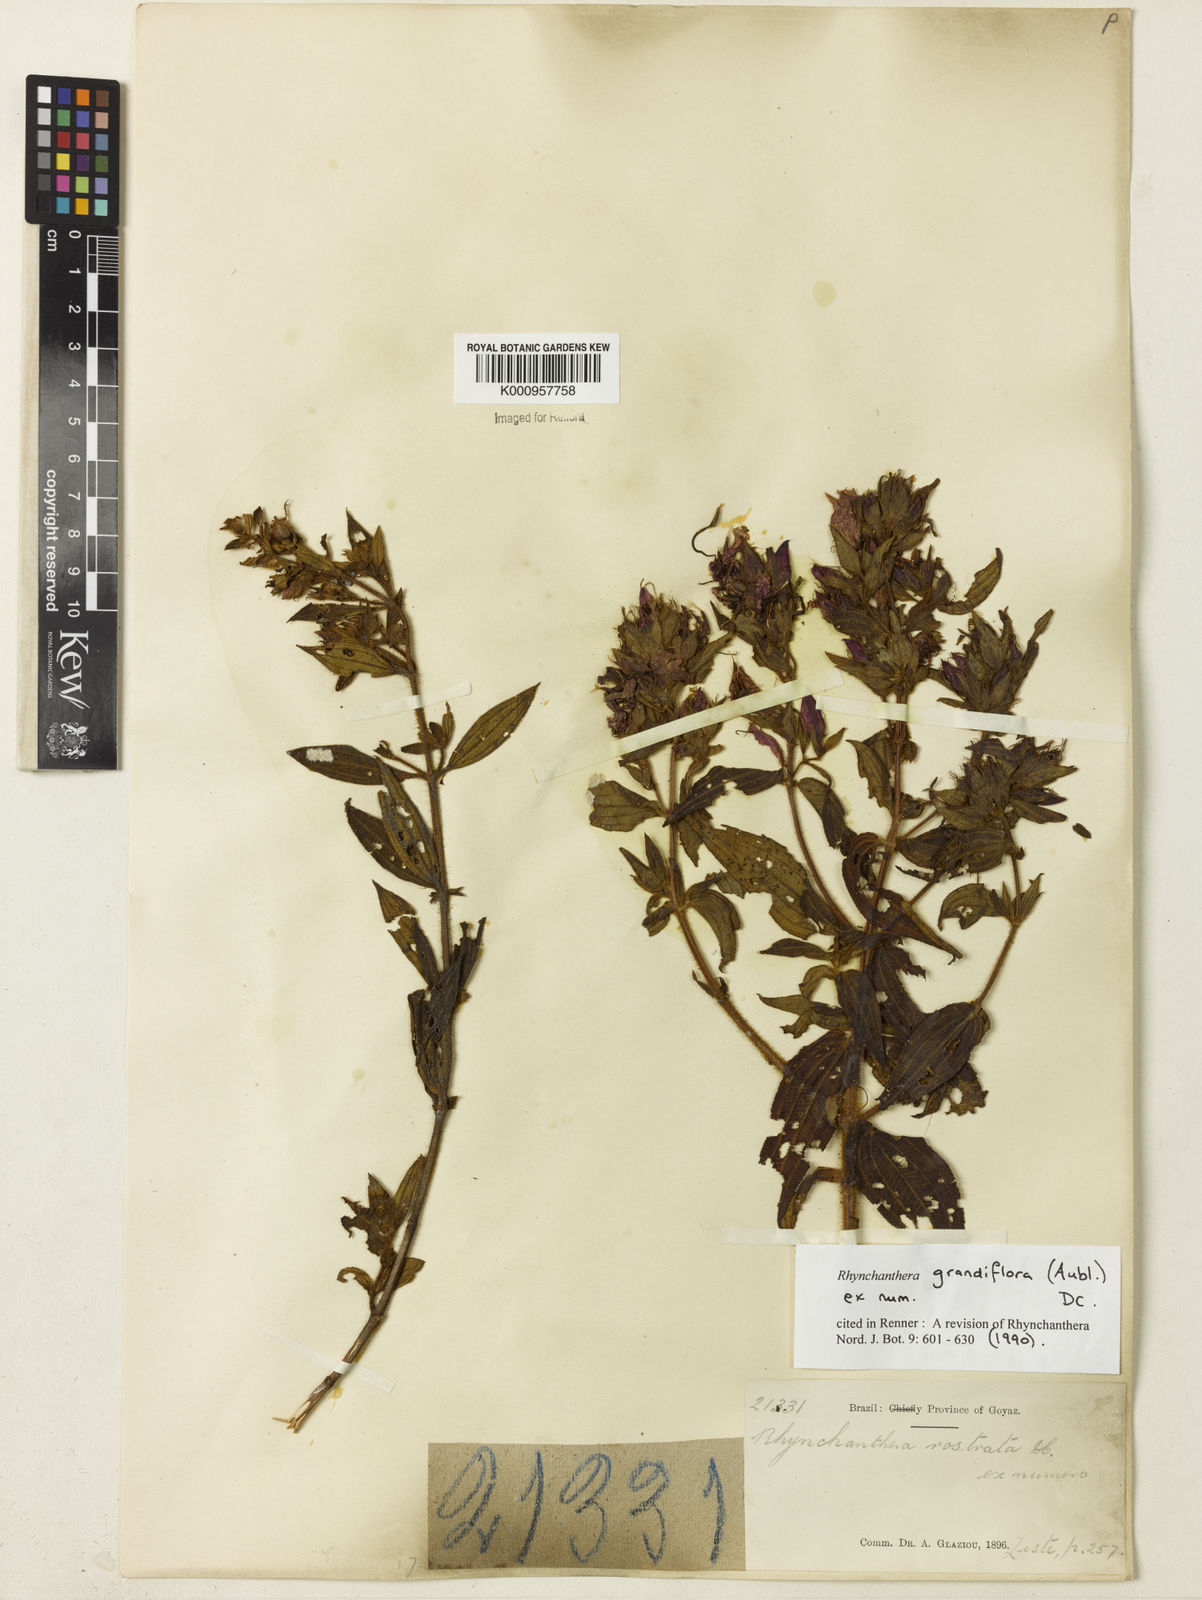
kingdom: Plantae
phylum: Tracheophyta
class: Magnoliopsida
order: Myrtales
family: Melastomataceae
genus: Rhynchanthera
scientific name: Rhynchanthera grandiflora
